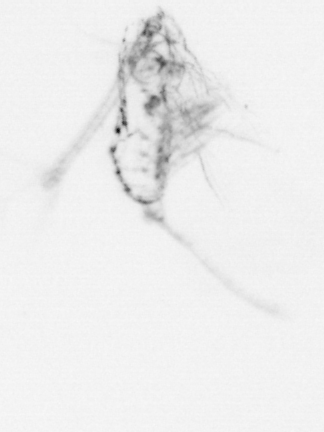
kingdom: Animalia
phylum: Arthropoda
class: Copepoda
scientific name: Copepoda
